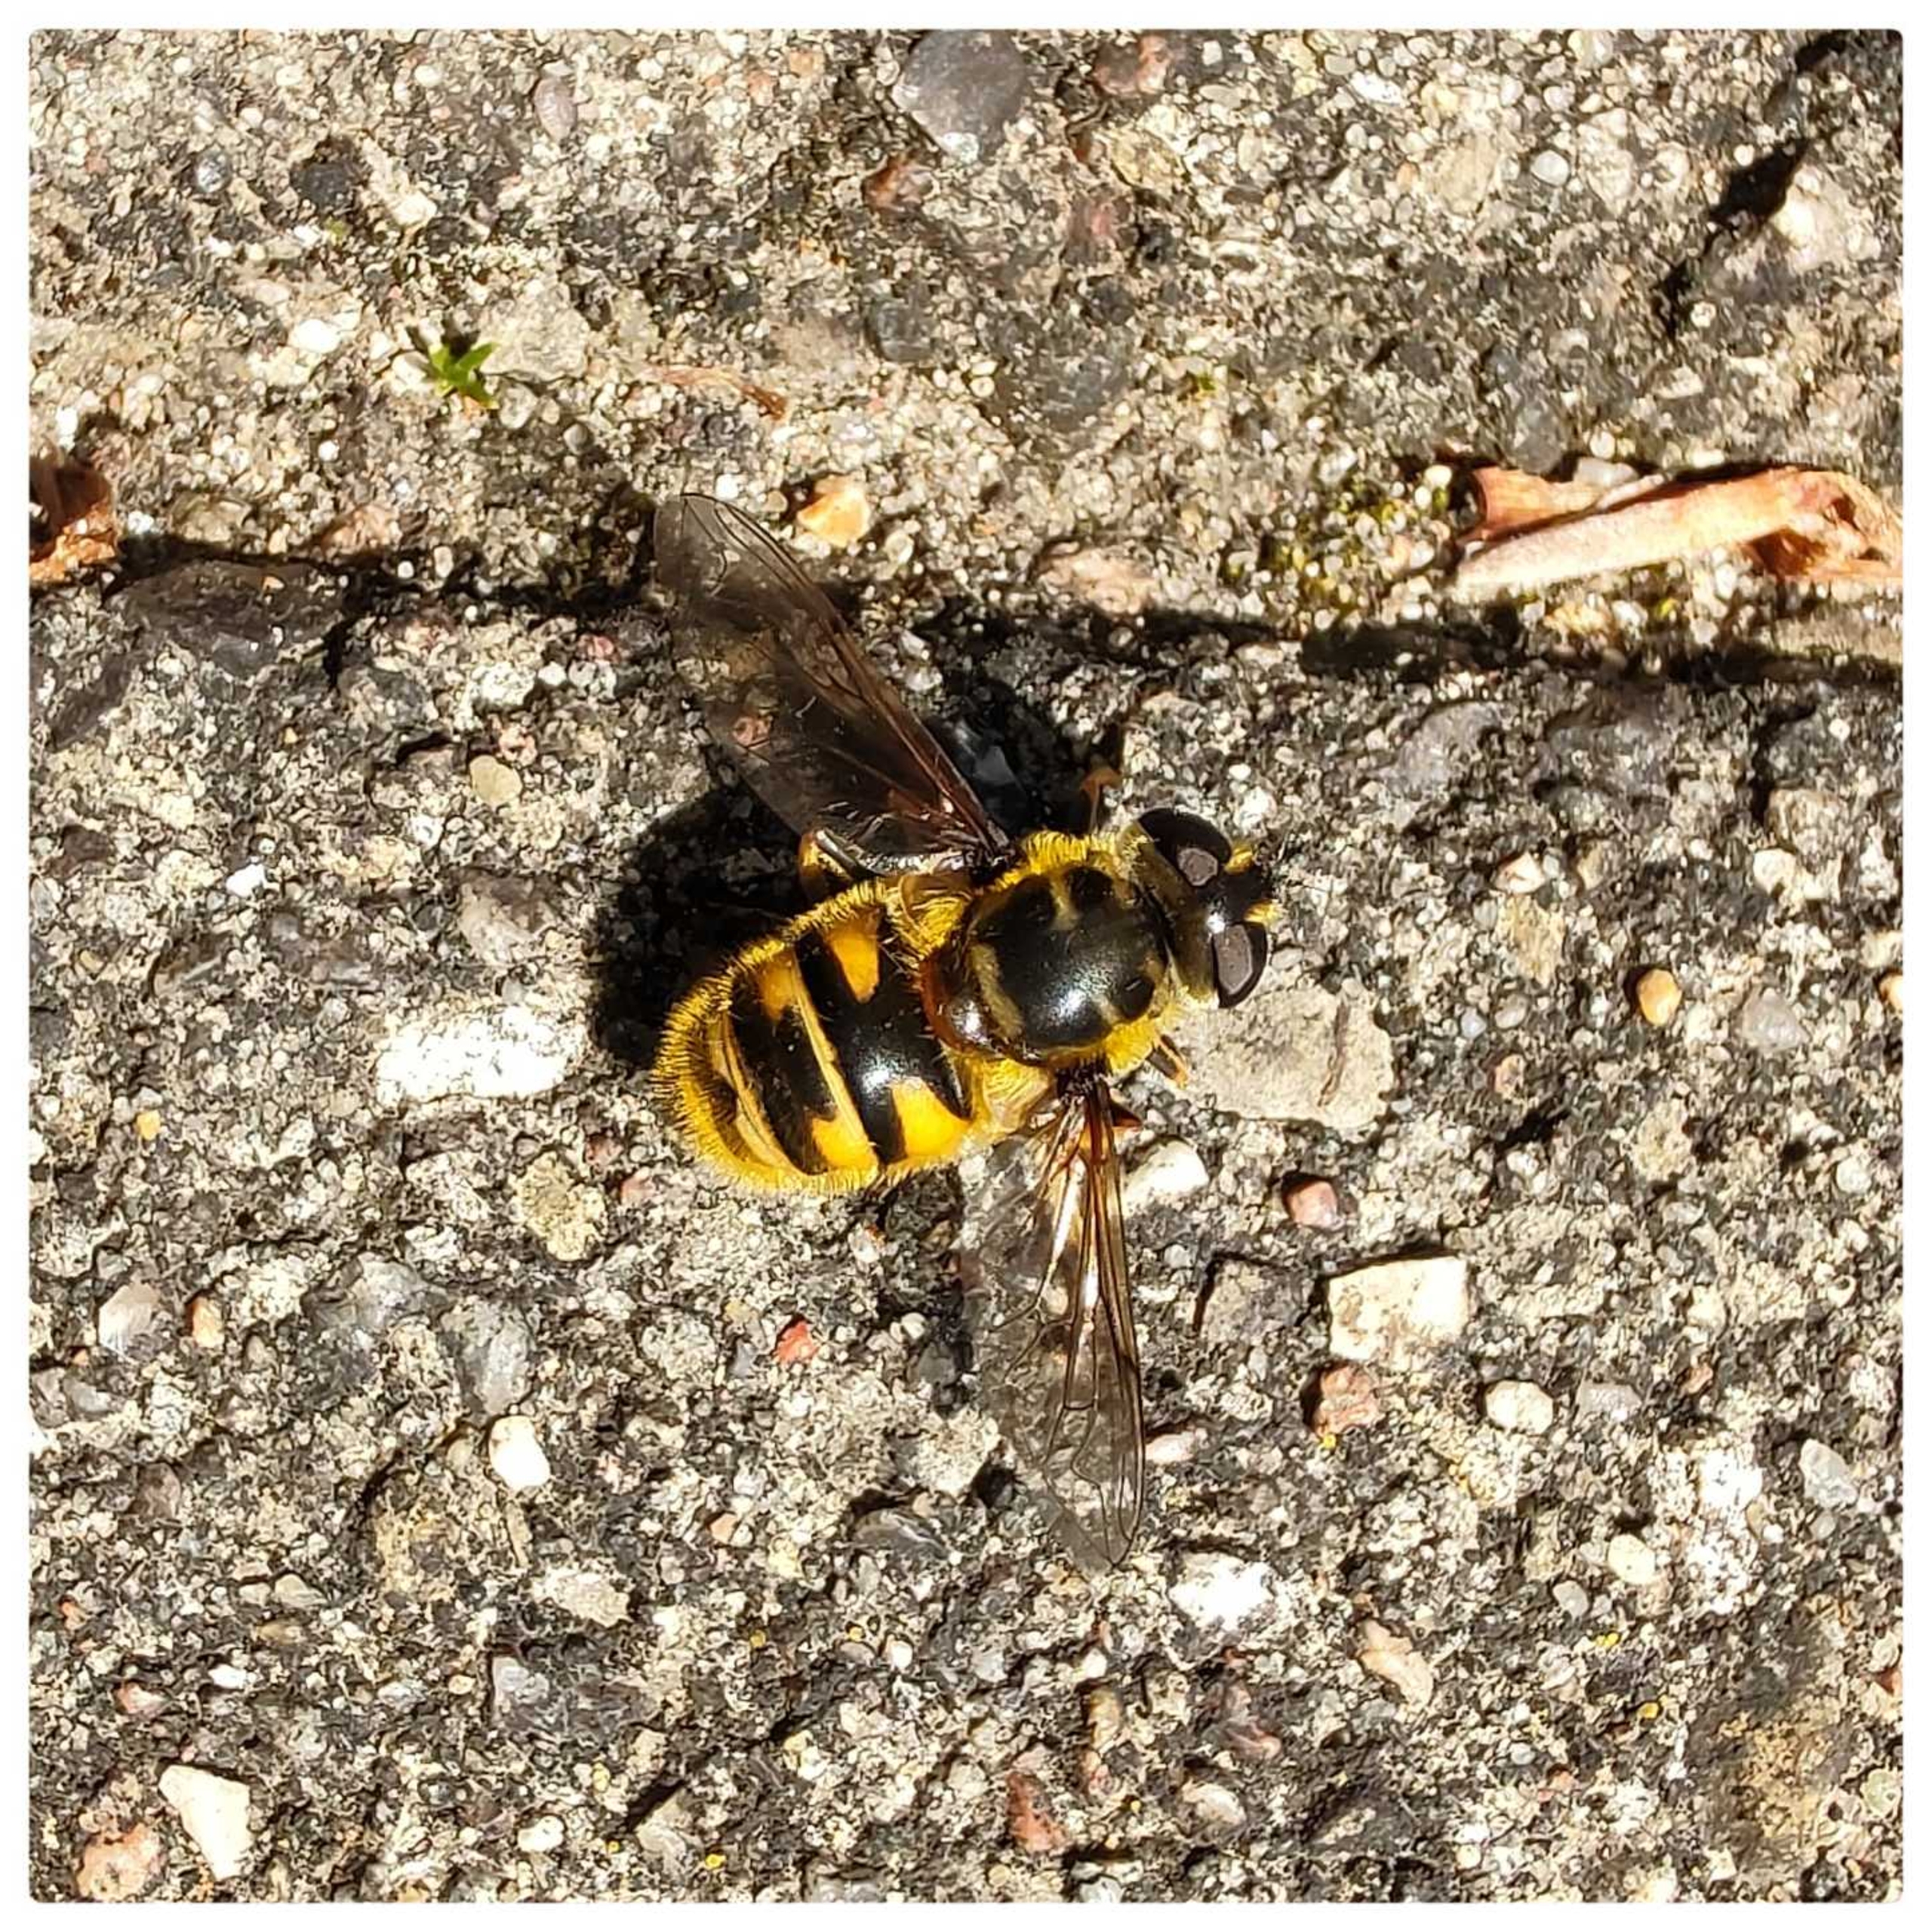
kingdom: Animalia
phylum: Arthropoda
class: Insecta
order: Diptera
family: Syrphidae
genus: Myathropa
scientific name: Myathropa florea
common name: Dødningehoved-svirreflue
